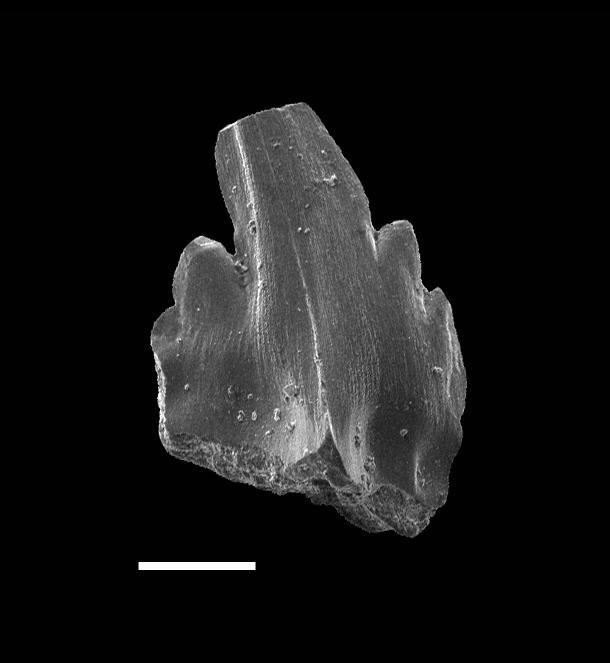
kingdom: Animalia
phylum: Chordata
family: Balognathidae
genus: Pterospathodus
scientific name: Pterospathodus eopennatus
